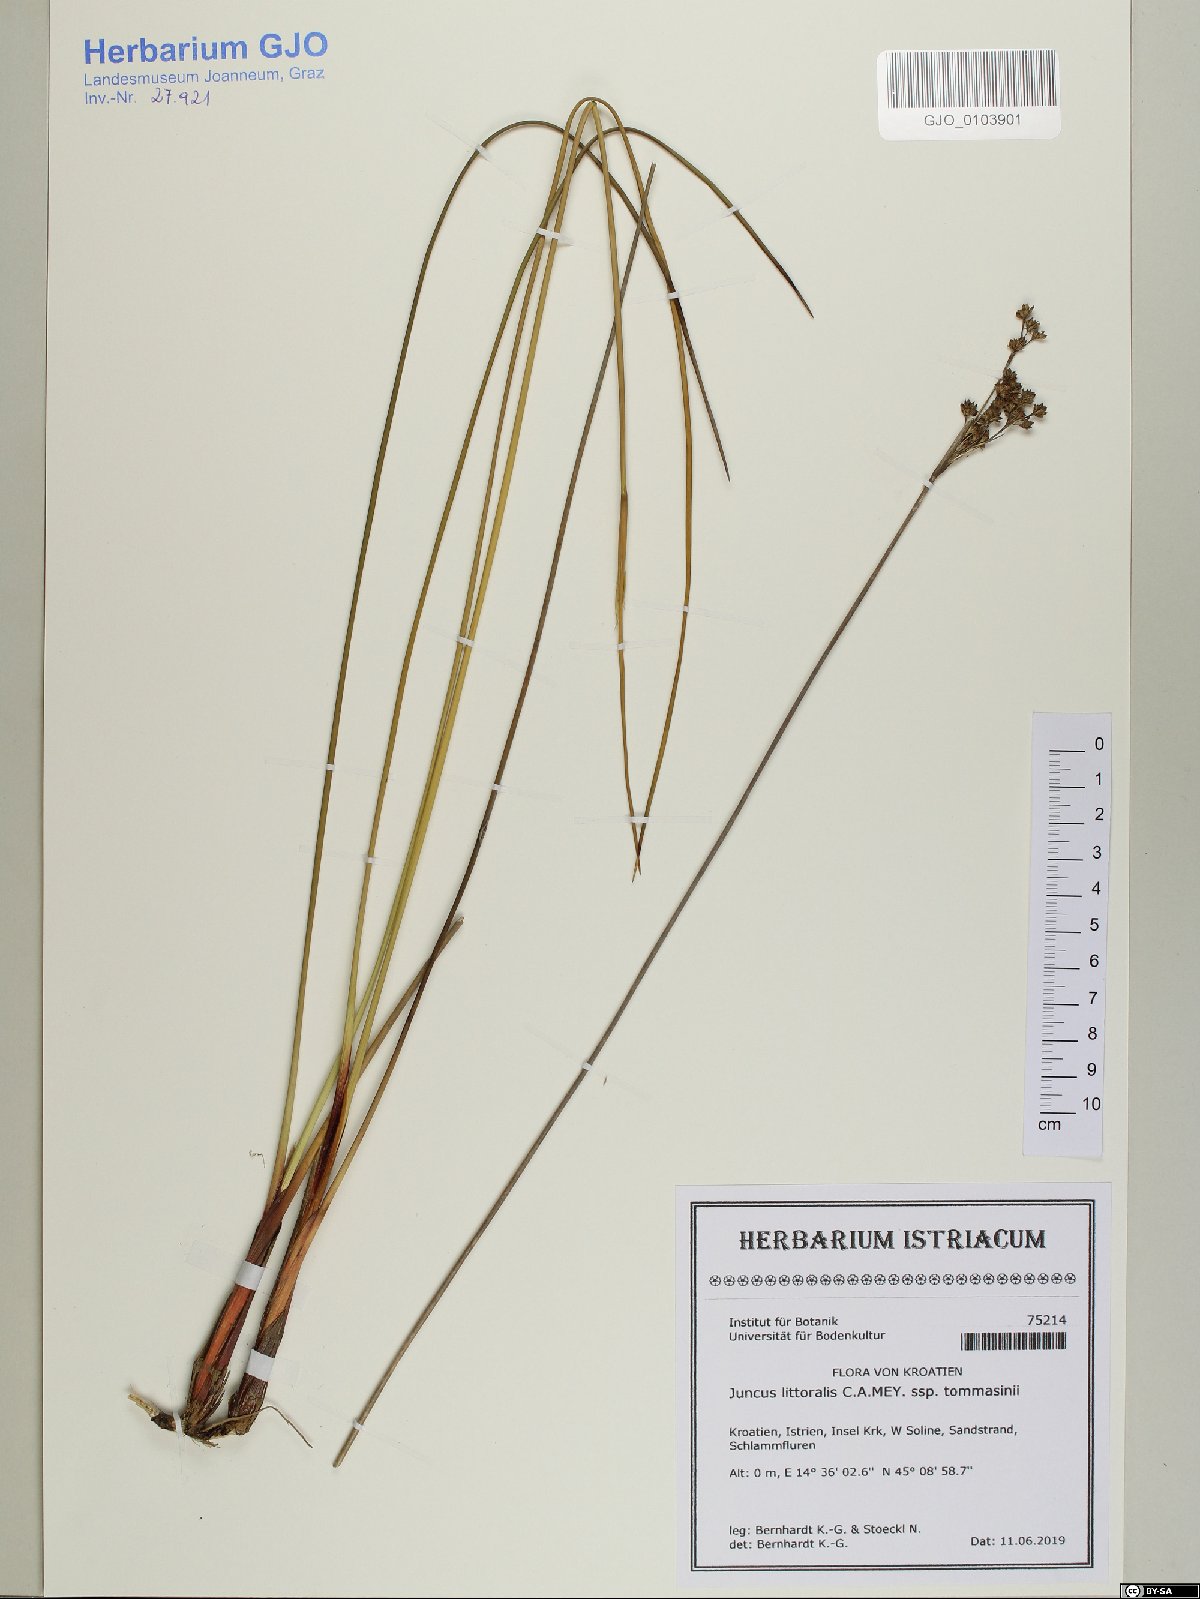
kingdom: Plantae
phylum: Tracheophyta
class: Liliopsida
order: Poales
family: Juncaceae
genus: Juncus
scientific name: Juncus littoralis
